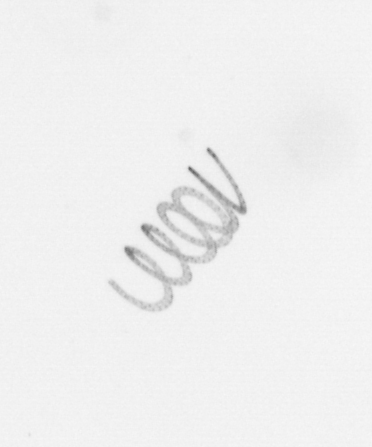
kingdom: Chromista
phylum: Ochrophyta
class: Bacillariophyceae
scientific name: Bacillariophyceae
